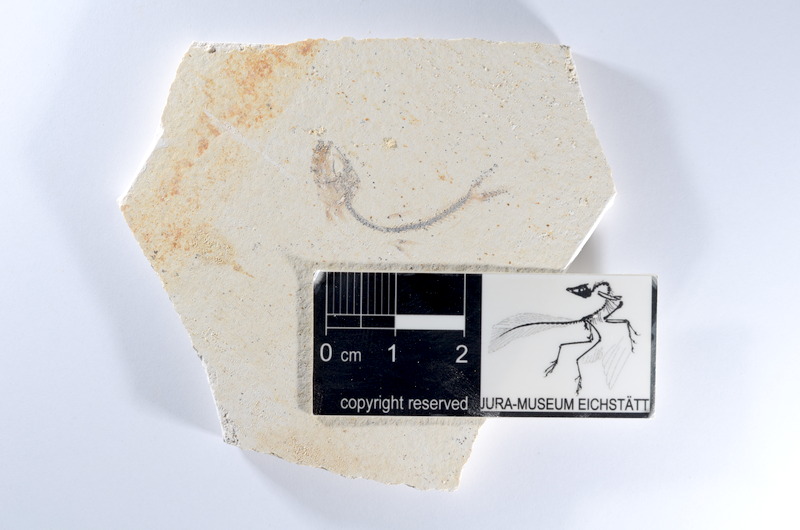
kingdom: Animalia
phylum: Chordata
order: Salmoniformes
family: Orthogonikleithridae
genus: Orthogonikleithrus
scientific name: Orthogonikleithrus hoelli
